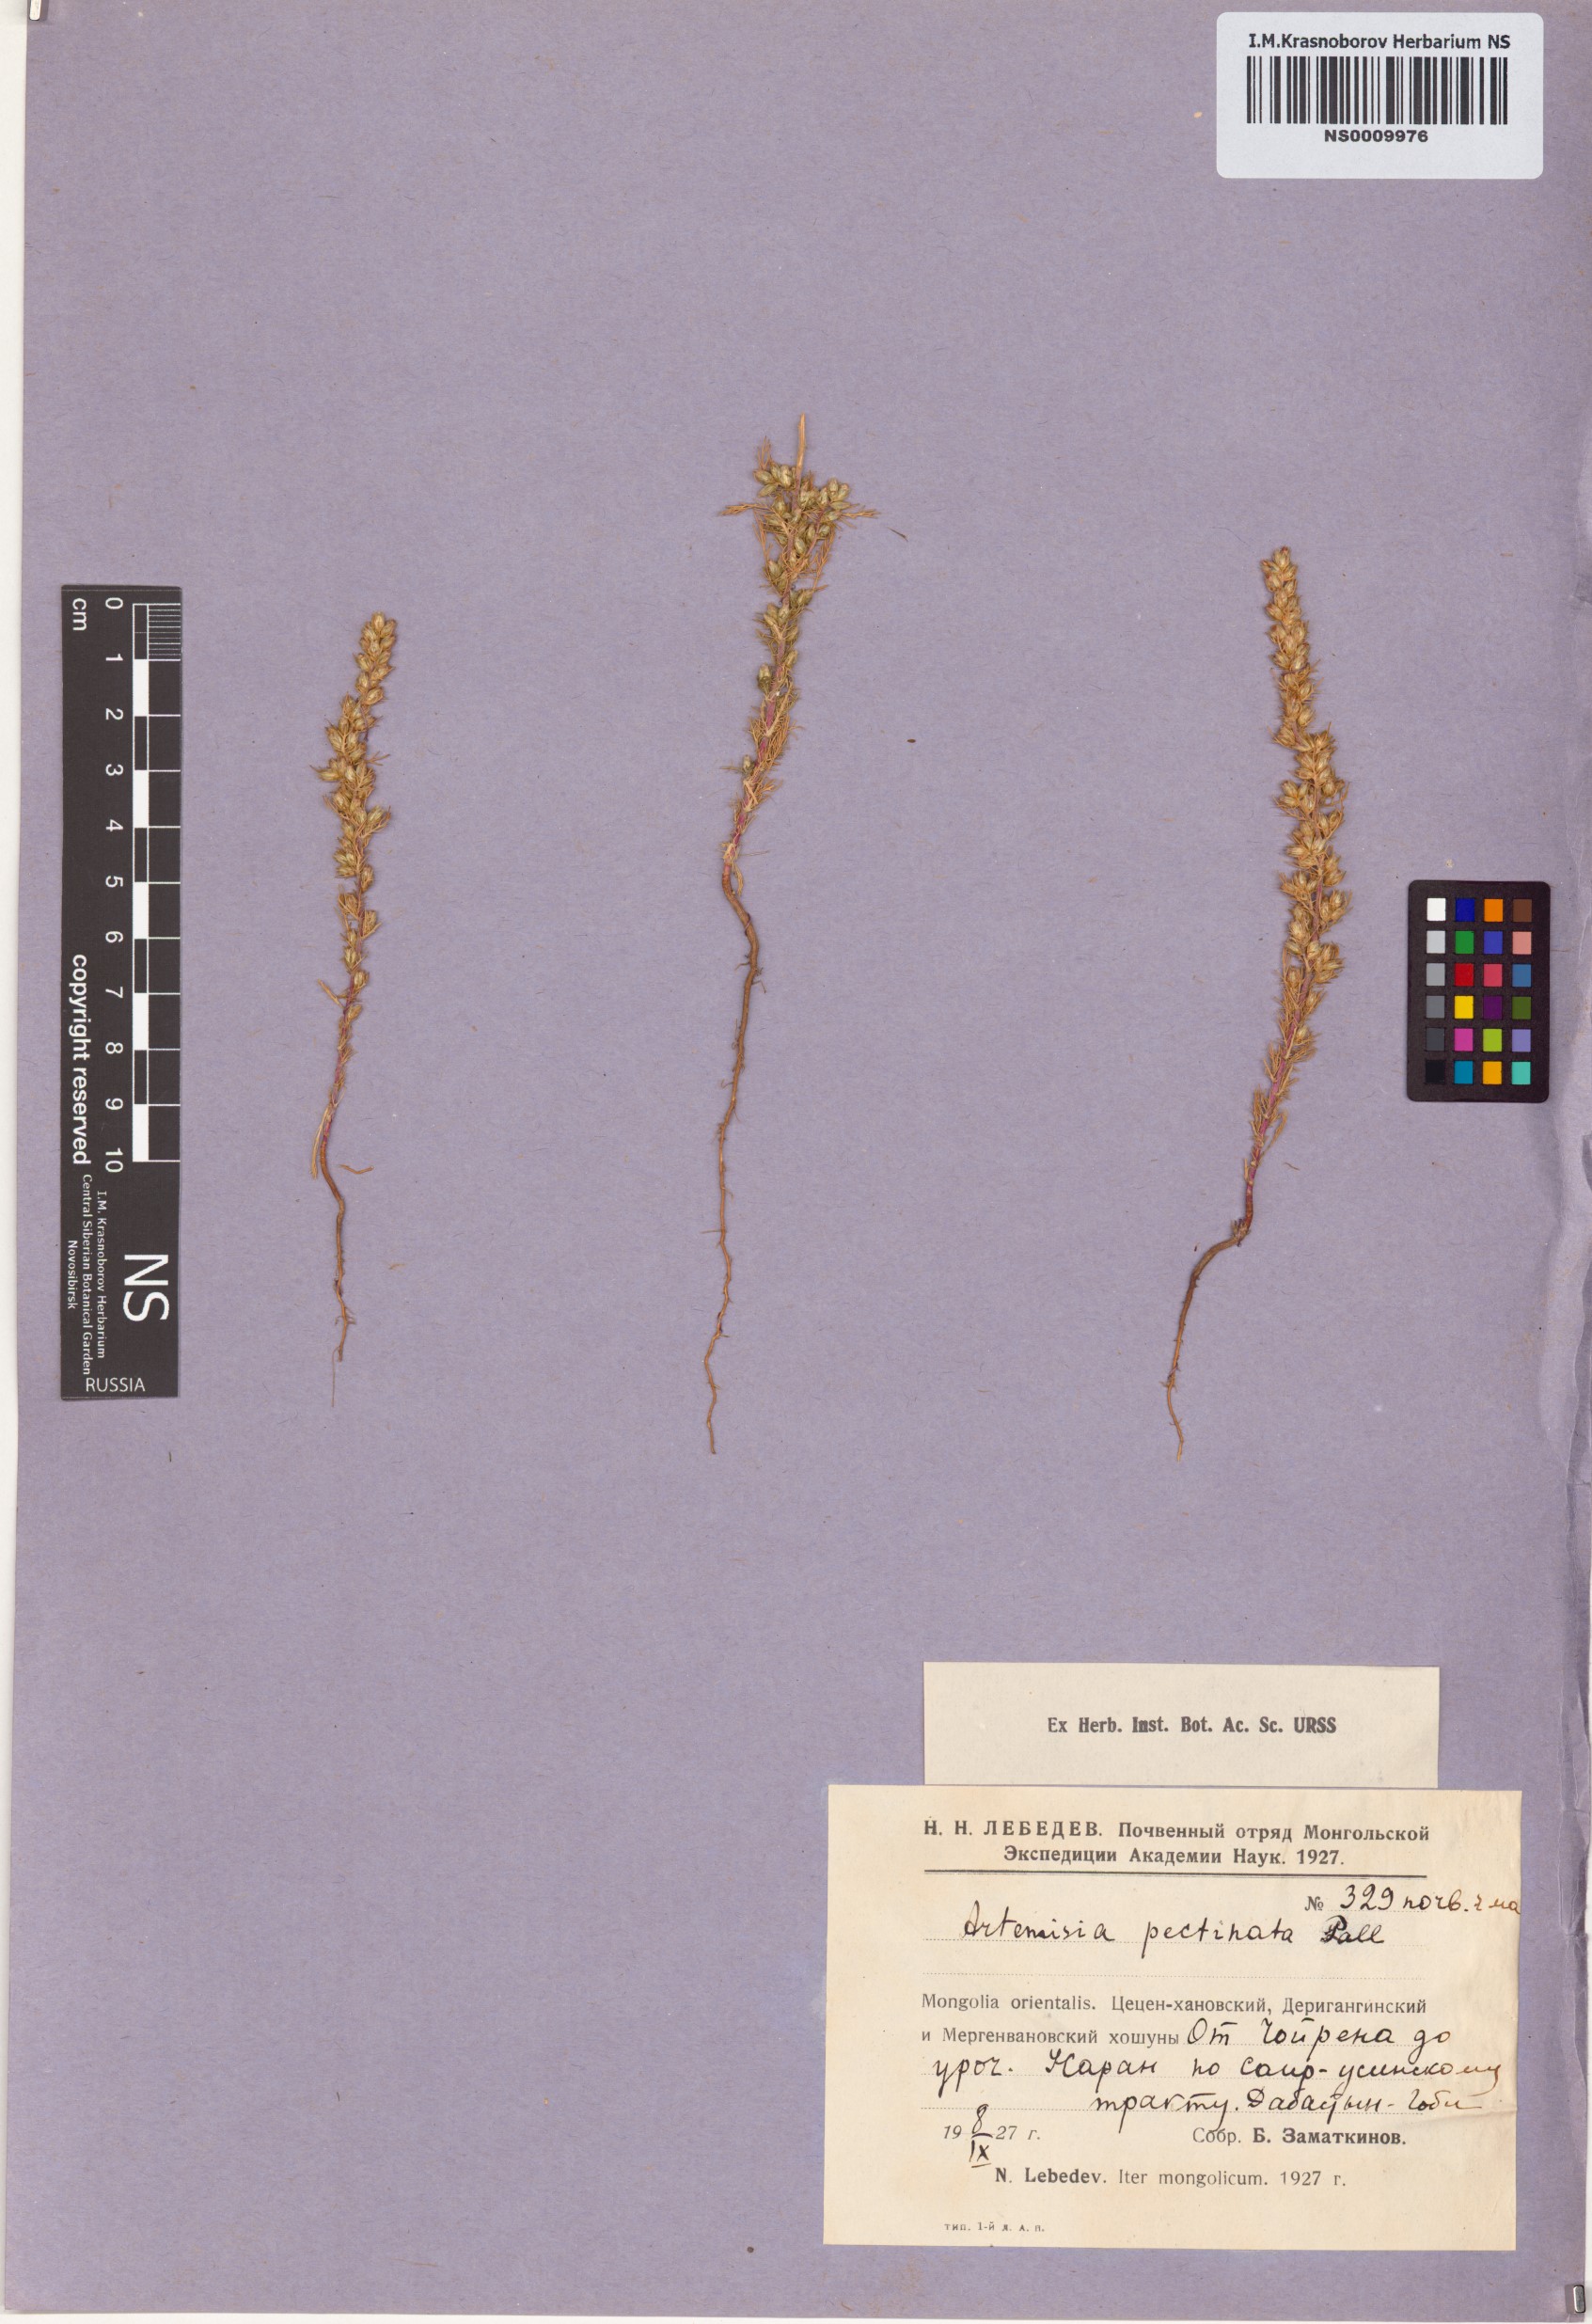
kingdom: Plantae
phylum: Tracheophyta
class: Magnoliopsida
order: Asterales
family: Asteraceae
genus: Neopallasia
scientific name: Neopallasia pectinata
